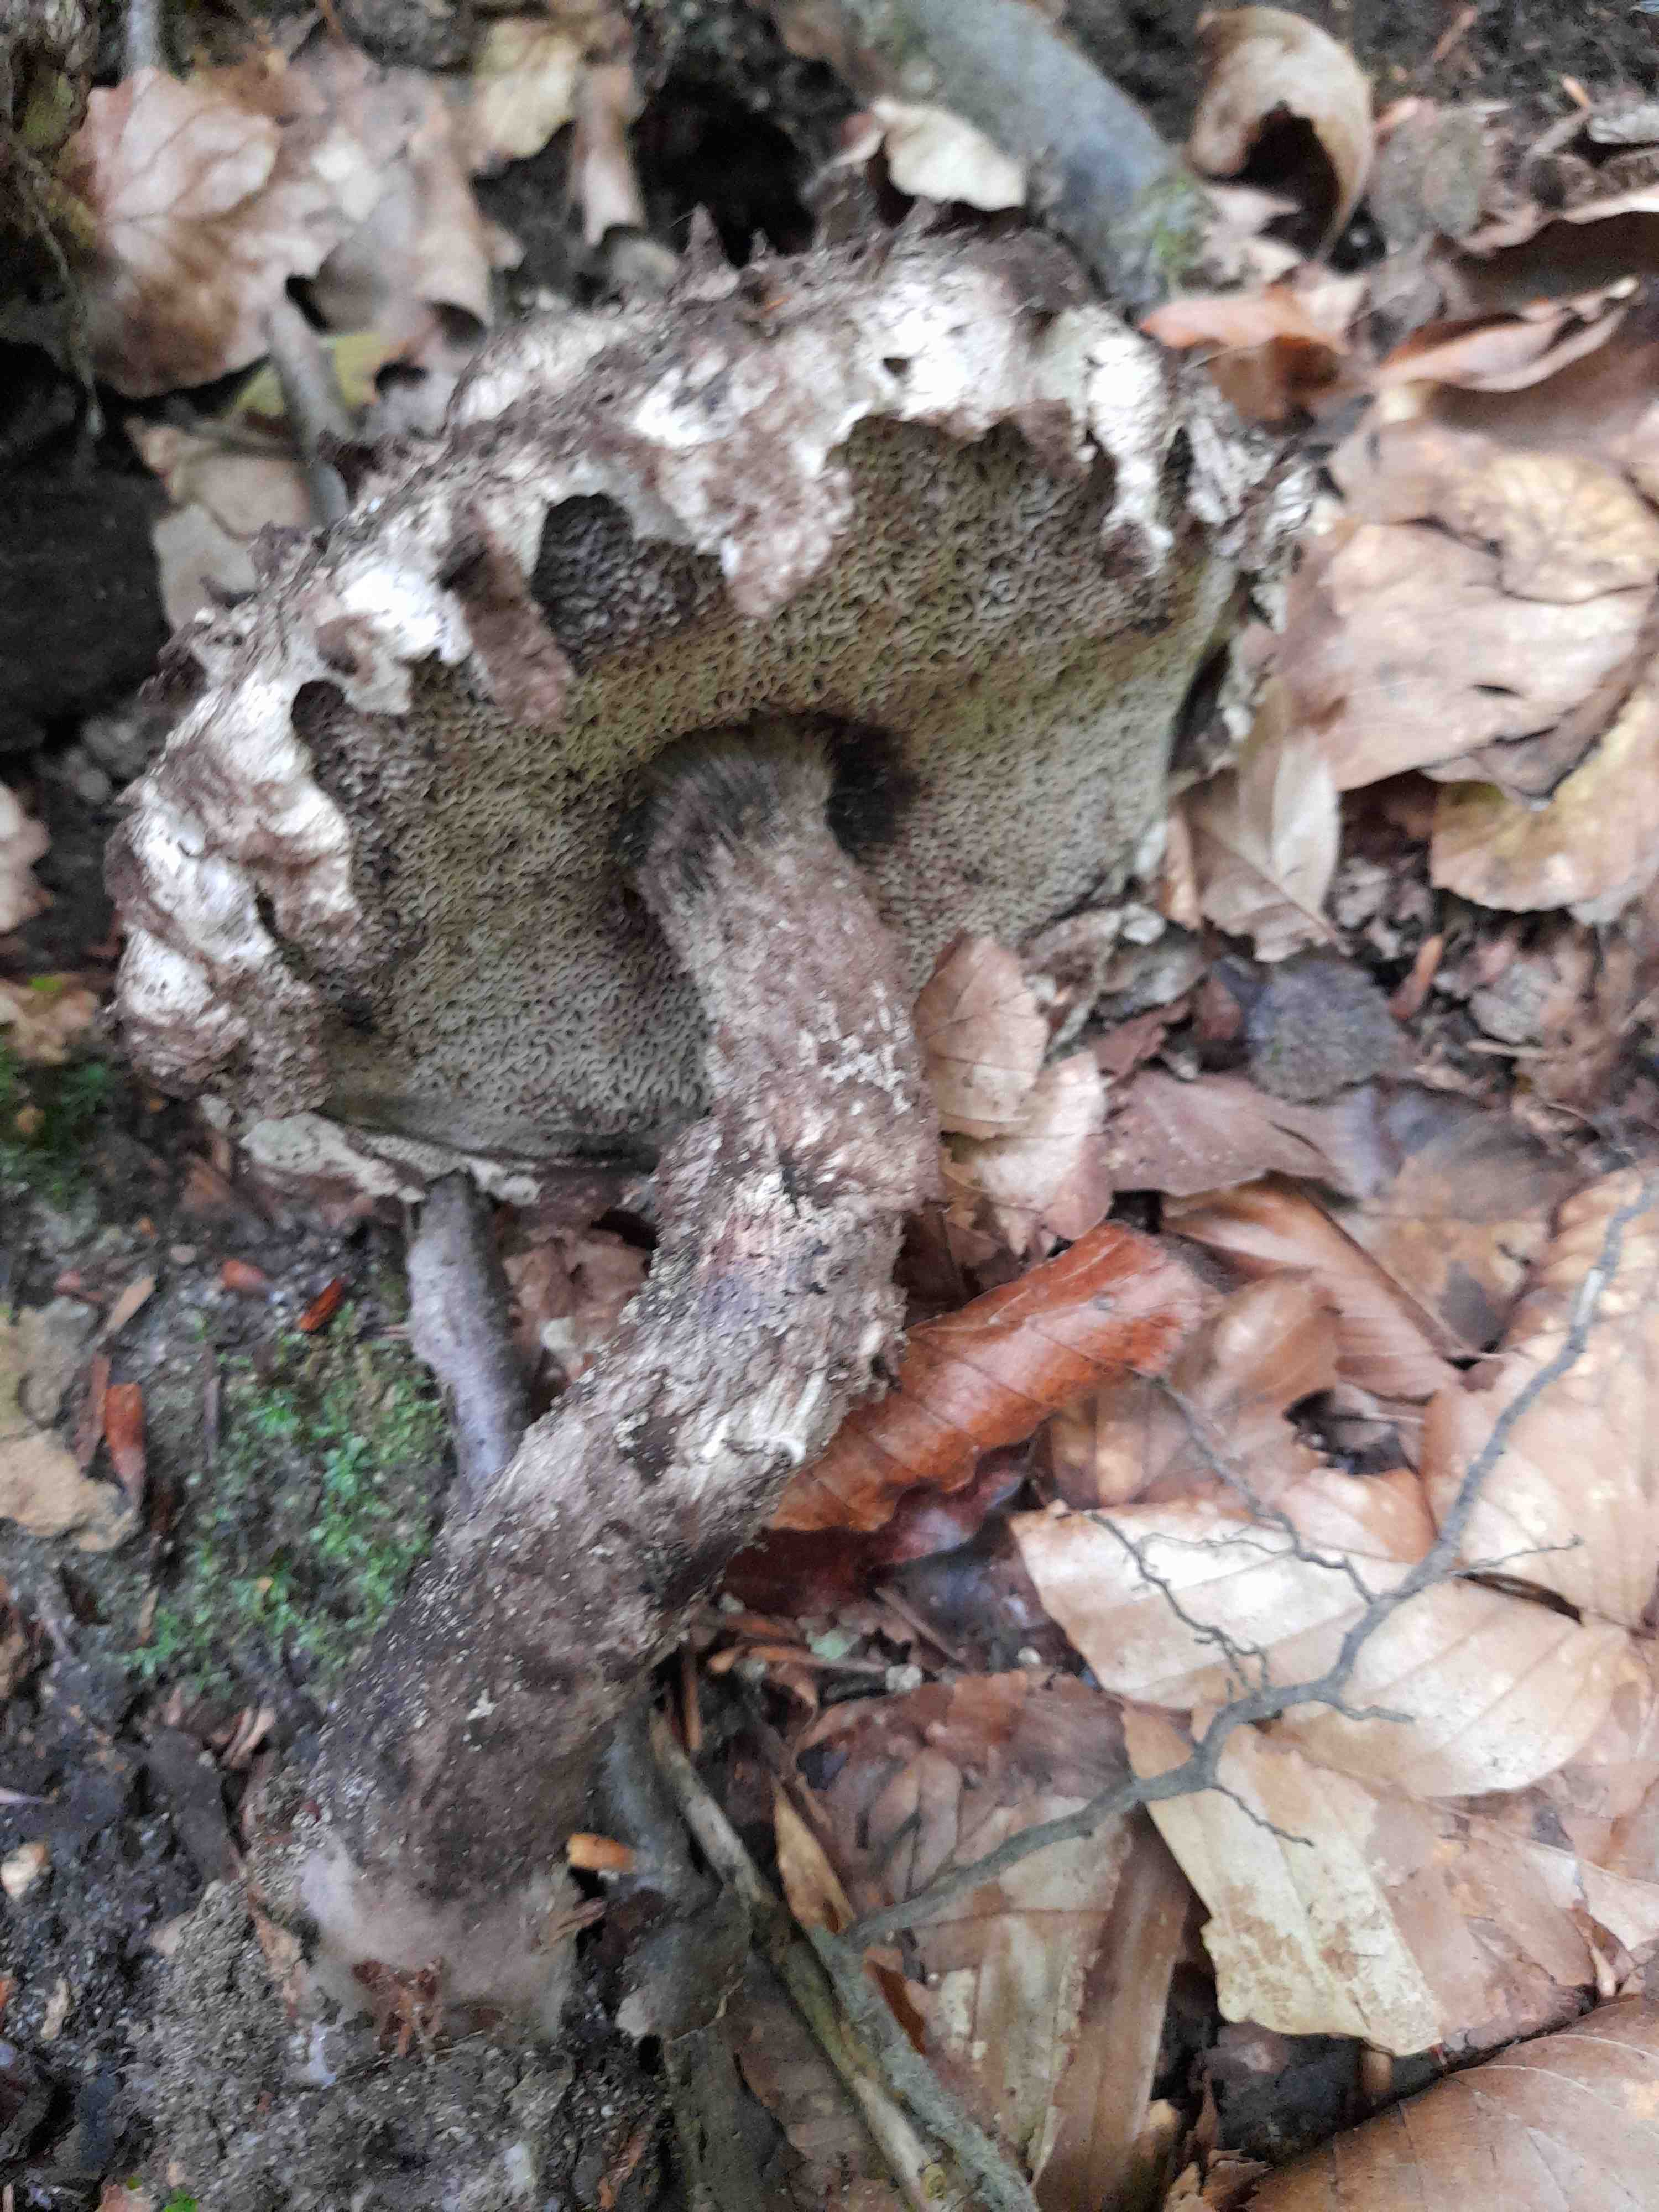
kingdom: Fungi
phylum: Basidiomycota
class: Agaricomycetes
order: Boletales
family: Boletaceae
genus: Strobilomyces
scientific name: Strobilomyces strobilaceus
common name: koglerørhat
